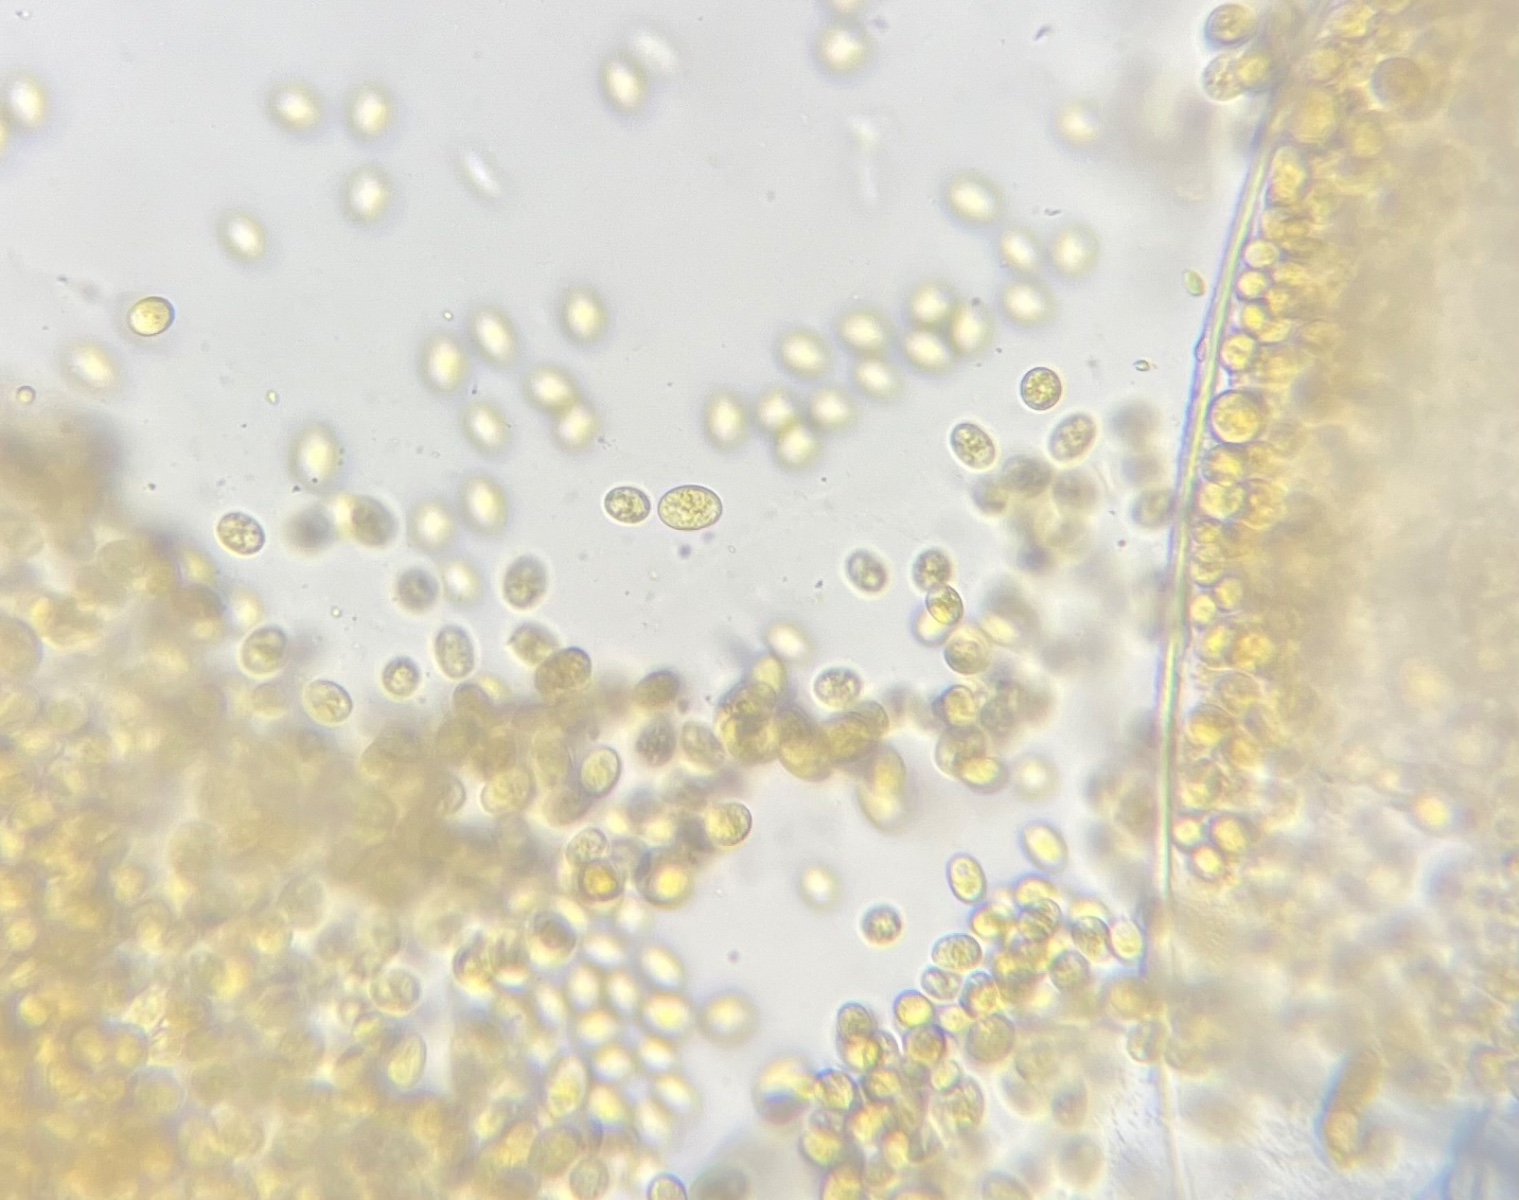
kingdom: Fungi
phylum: Mucoromycota
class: Mucoromycetes
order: Mucorales
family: Pilobolaceae
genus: Pilobolus
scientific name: Pilobolus kleinii
